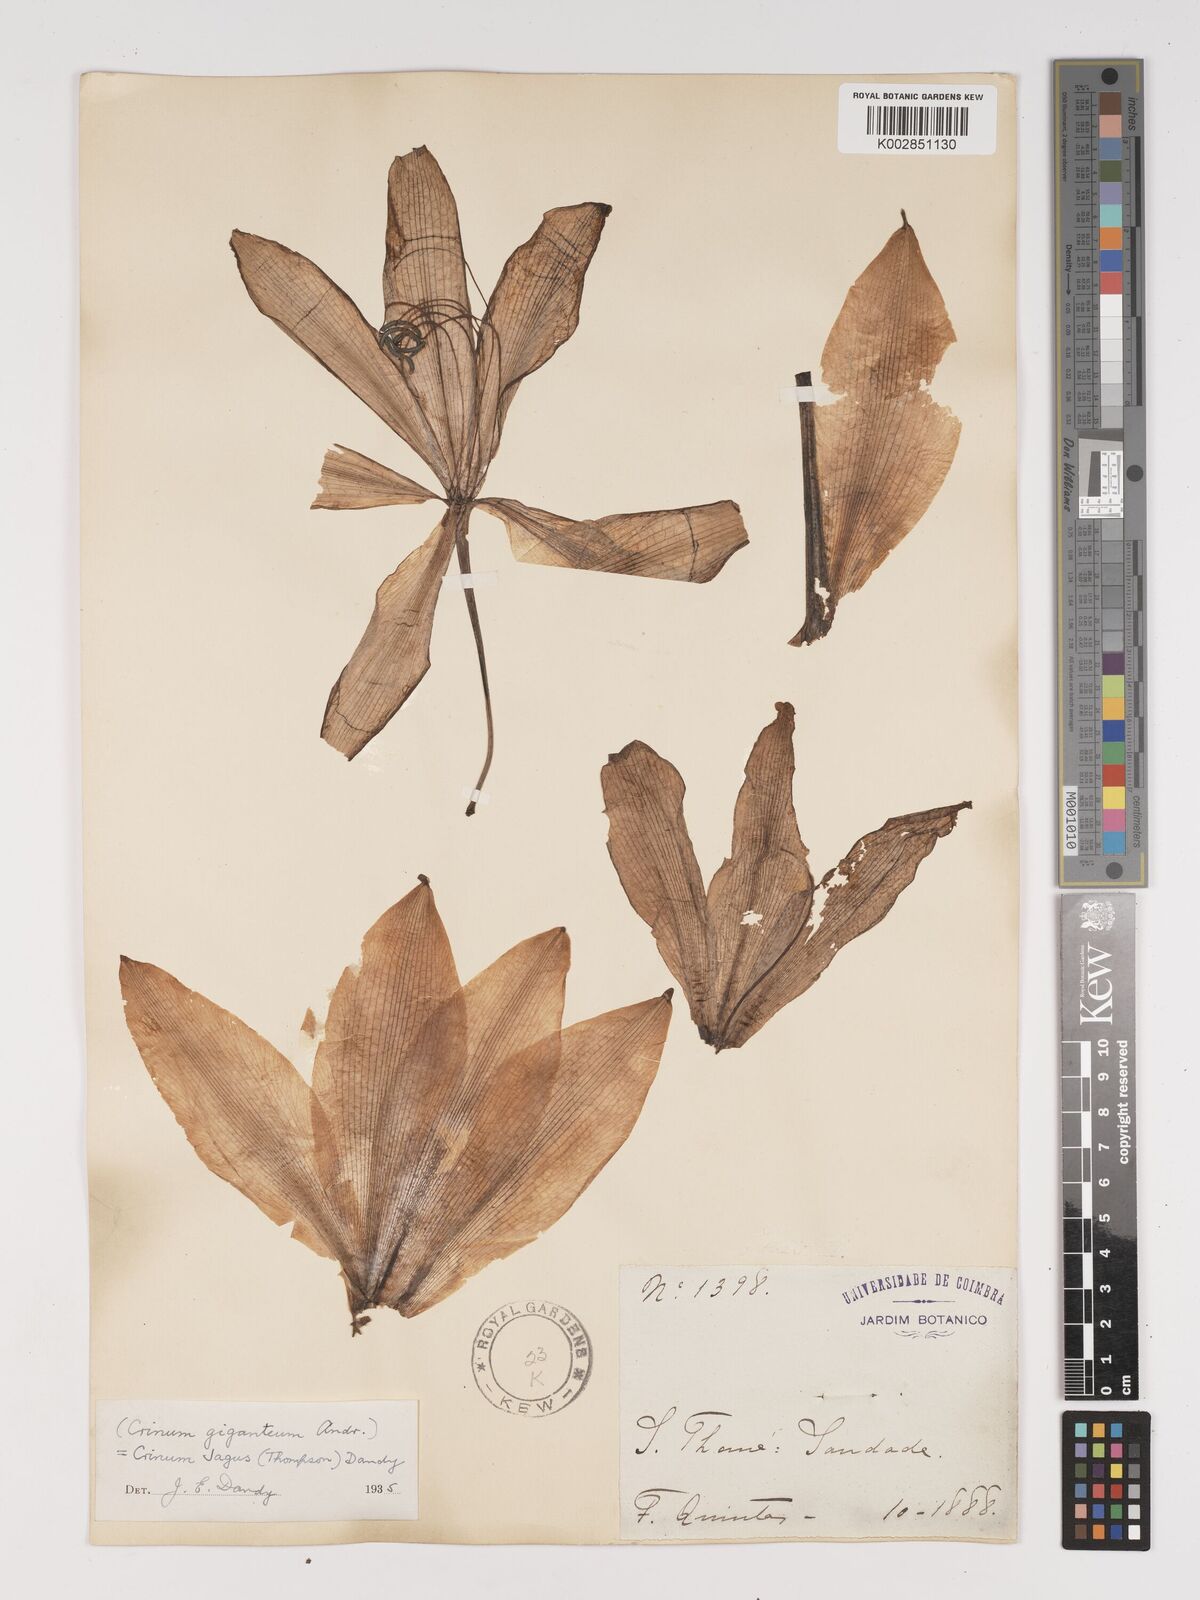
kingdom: Plantae
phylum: Tracheophyta
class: Liliopsida
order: Asparagales
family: Amaryllidaceae
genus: Crinum
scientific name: Crinum jagus
